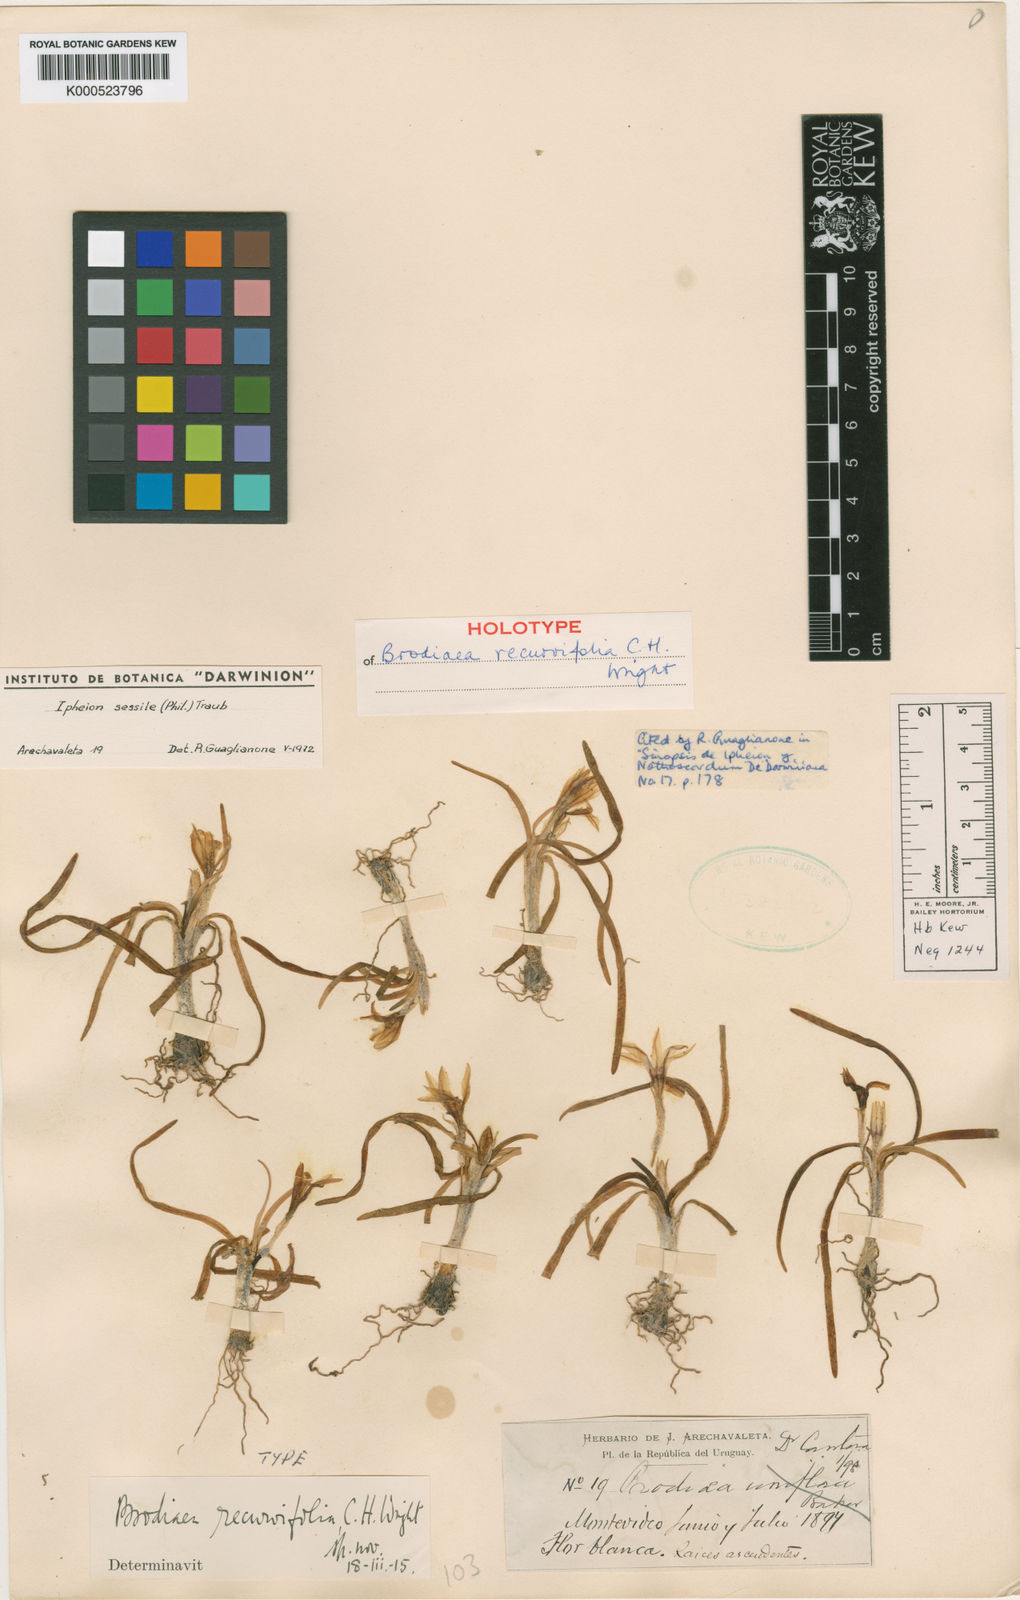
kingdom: Plantae
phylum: Tracheophyta
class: Liliopsida
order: Asparagales
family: Amaryllidaceae
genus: Tristagma
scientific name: Tristagma sessile
